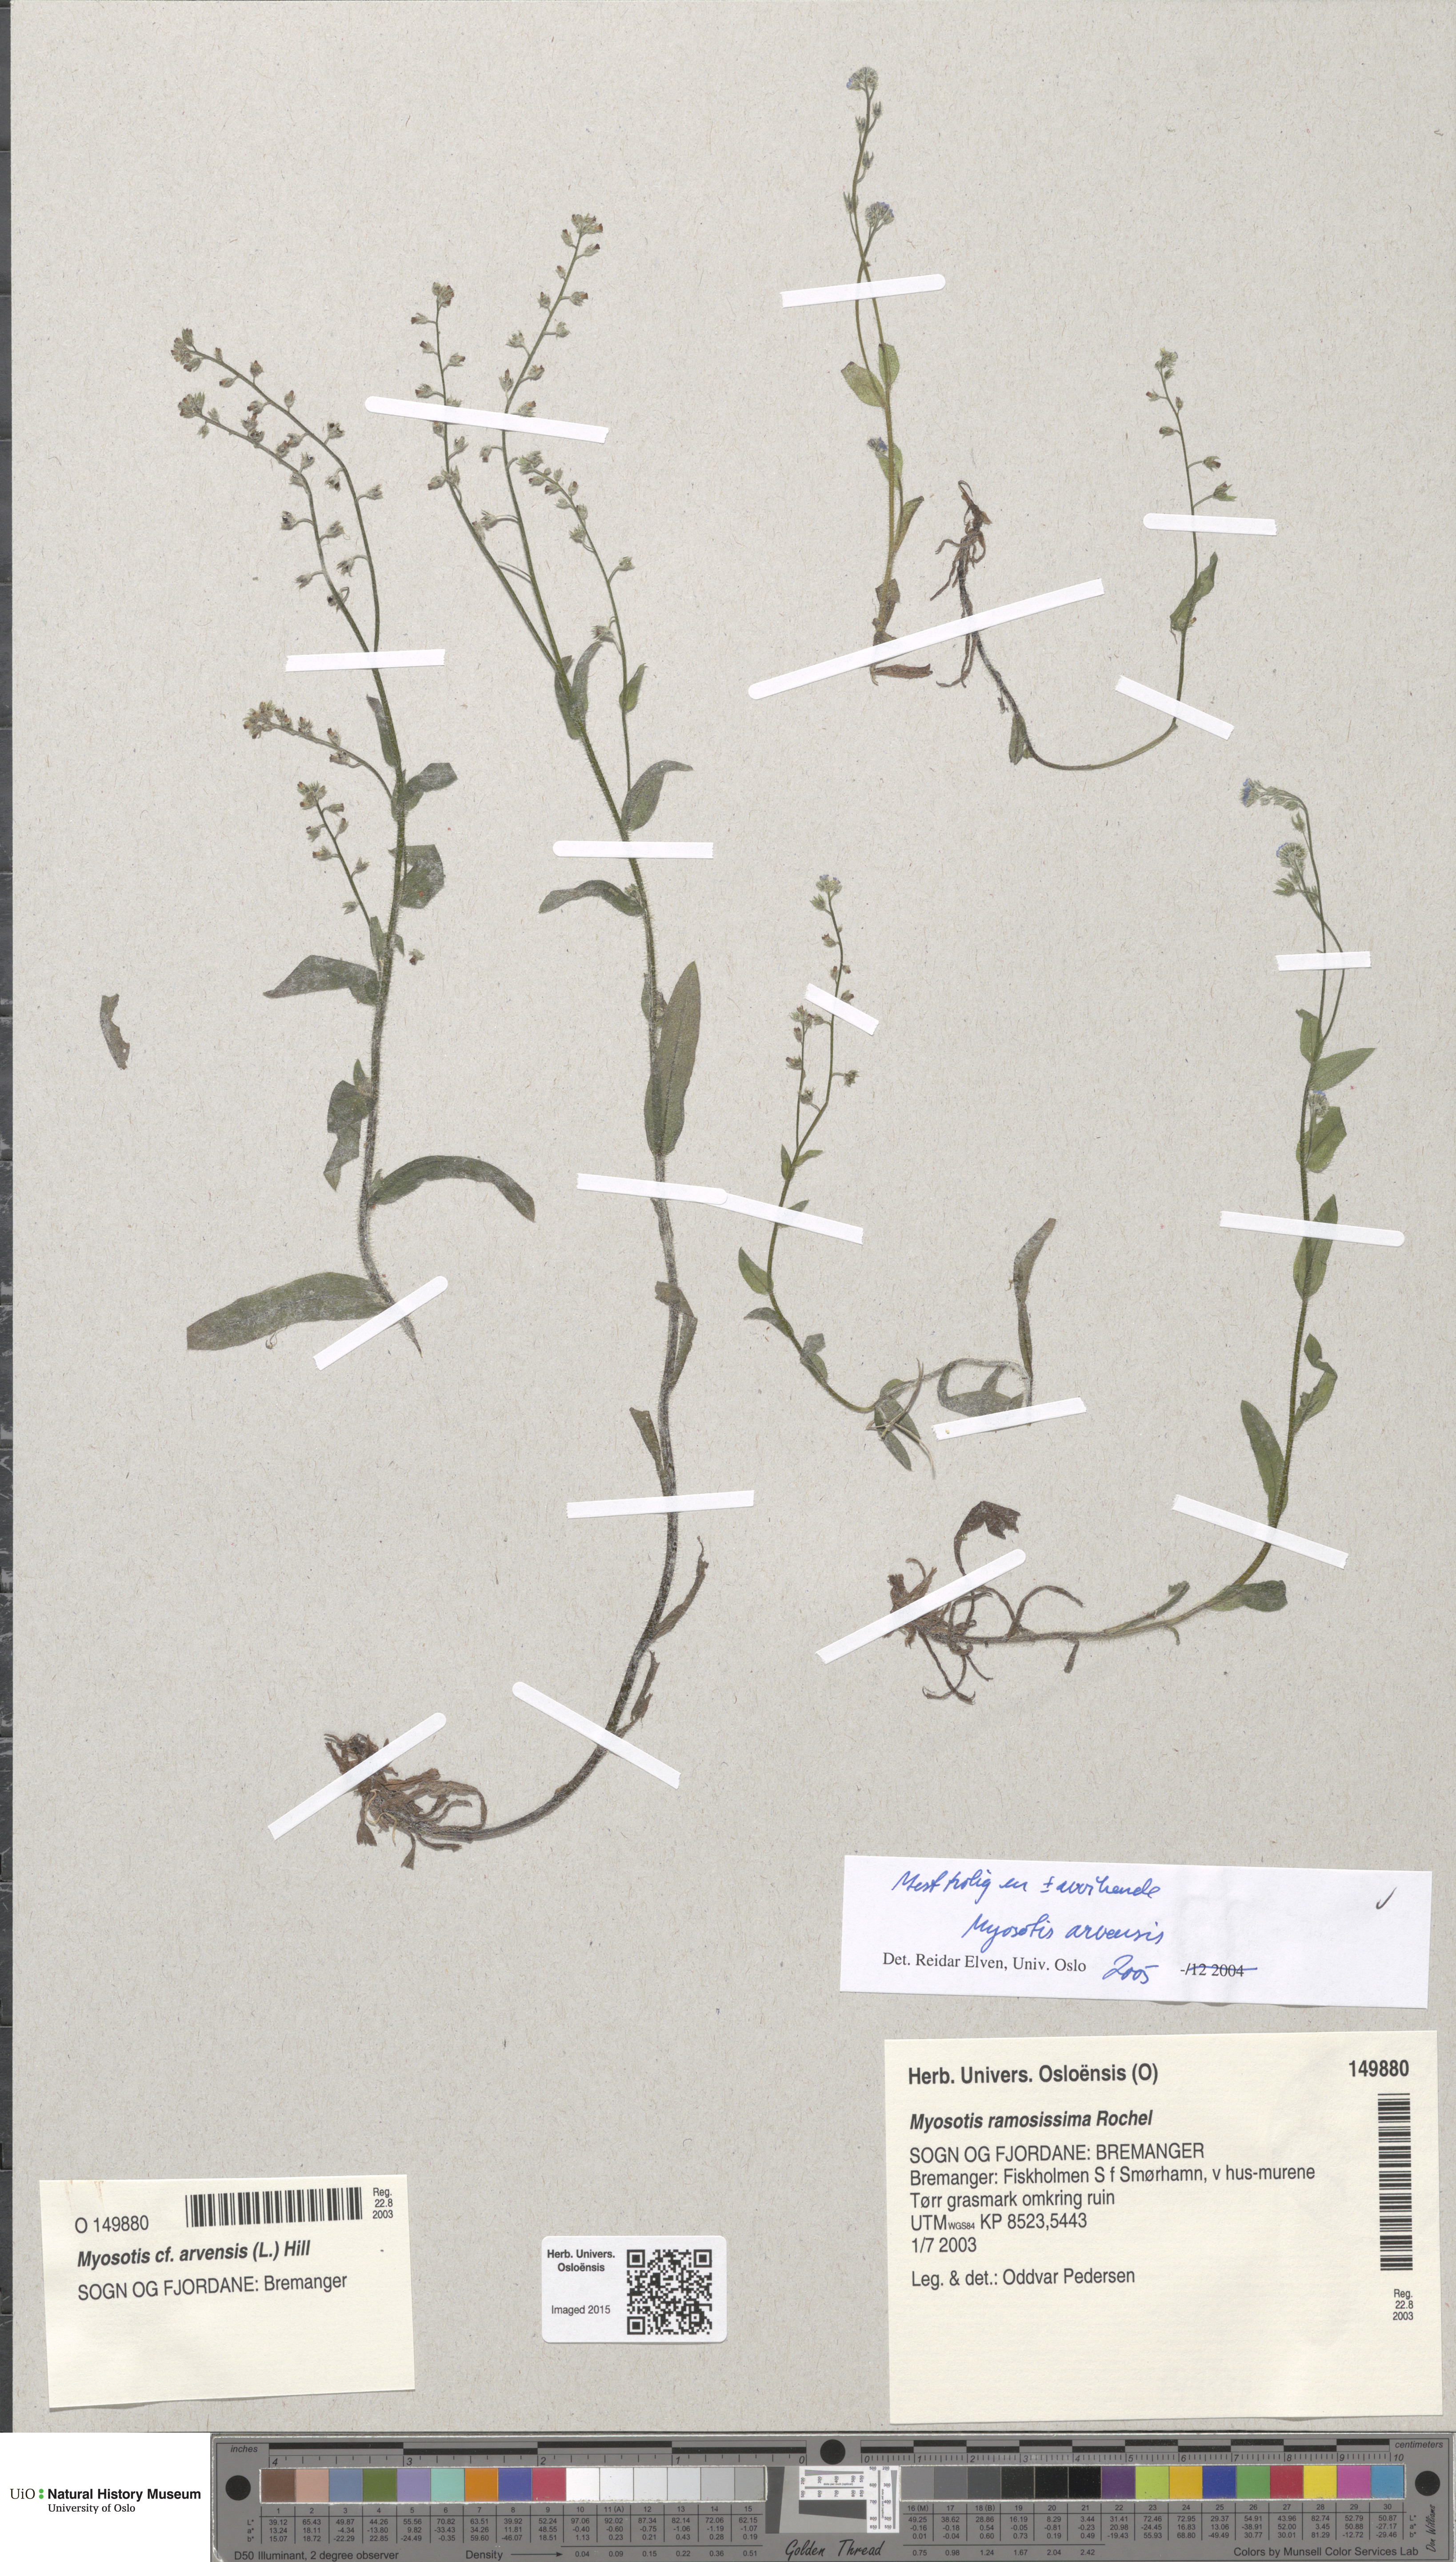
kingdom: Plantae
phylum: Tracheophyta
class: Magnoliopsida
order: Boraginales
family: Boraginaceae
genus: Myosotis
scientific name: Myosotis arvensis
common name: Field forget-me-not
